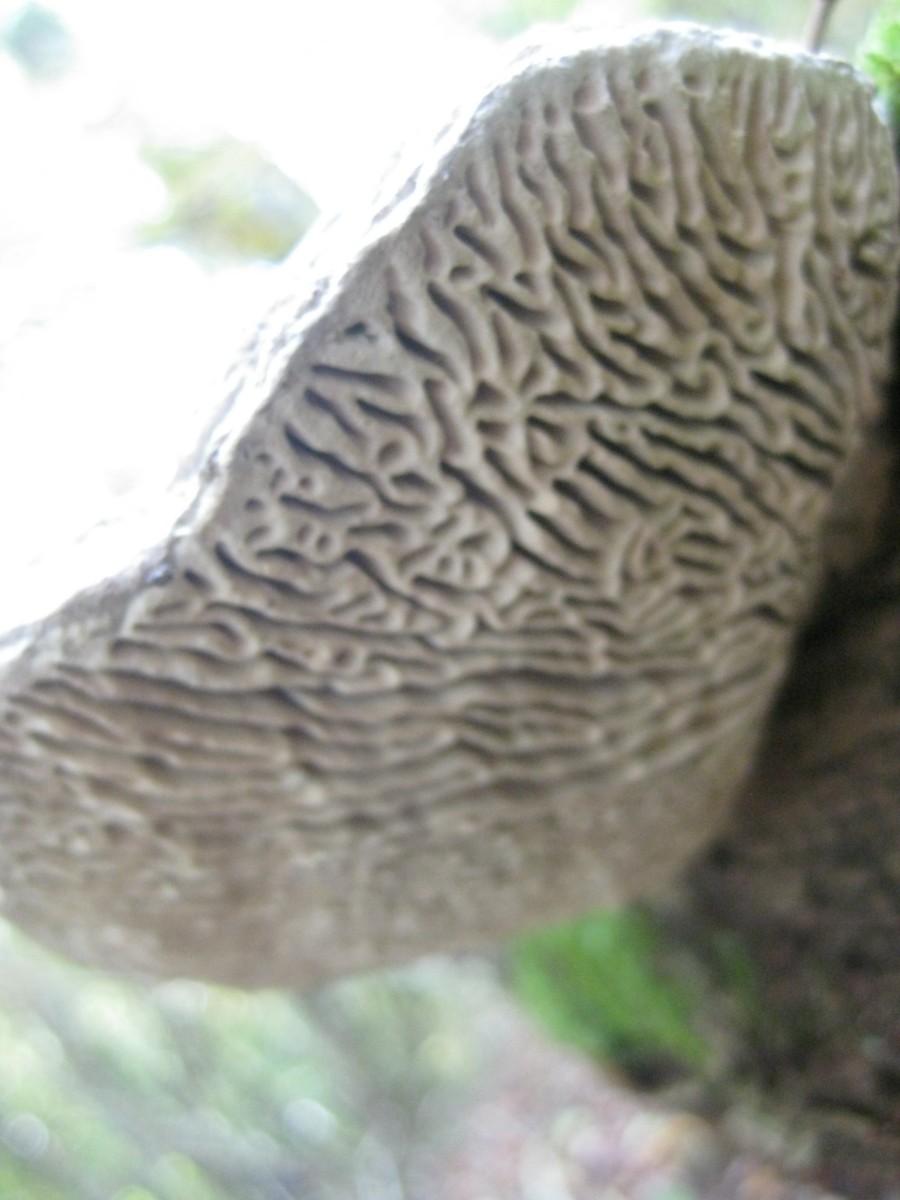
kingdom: Fungi
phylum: Basidiomycota
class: Agaricomycetes
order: Polyporales
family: Fomitopsidaceae
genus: Daedalea
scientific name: Daedalea quercina
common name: ege-labyrintsvamp
